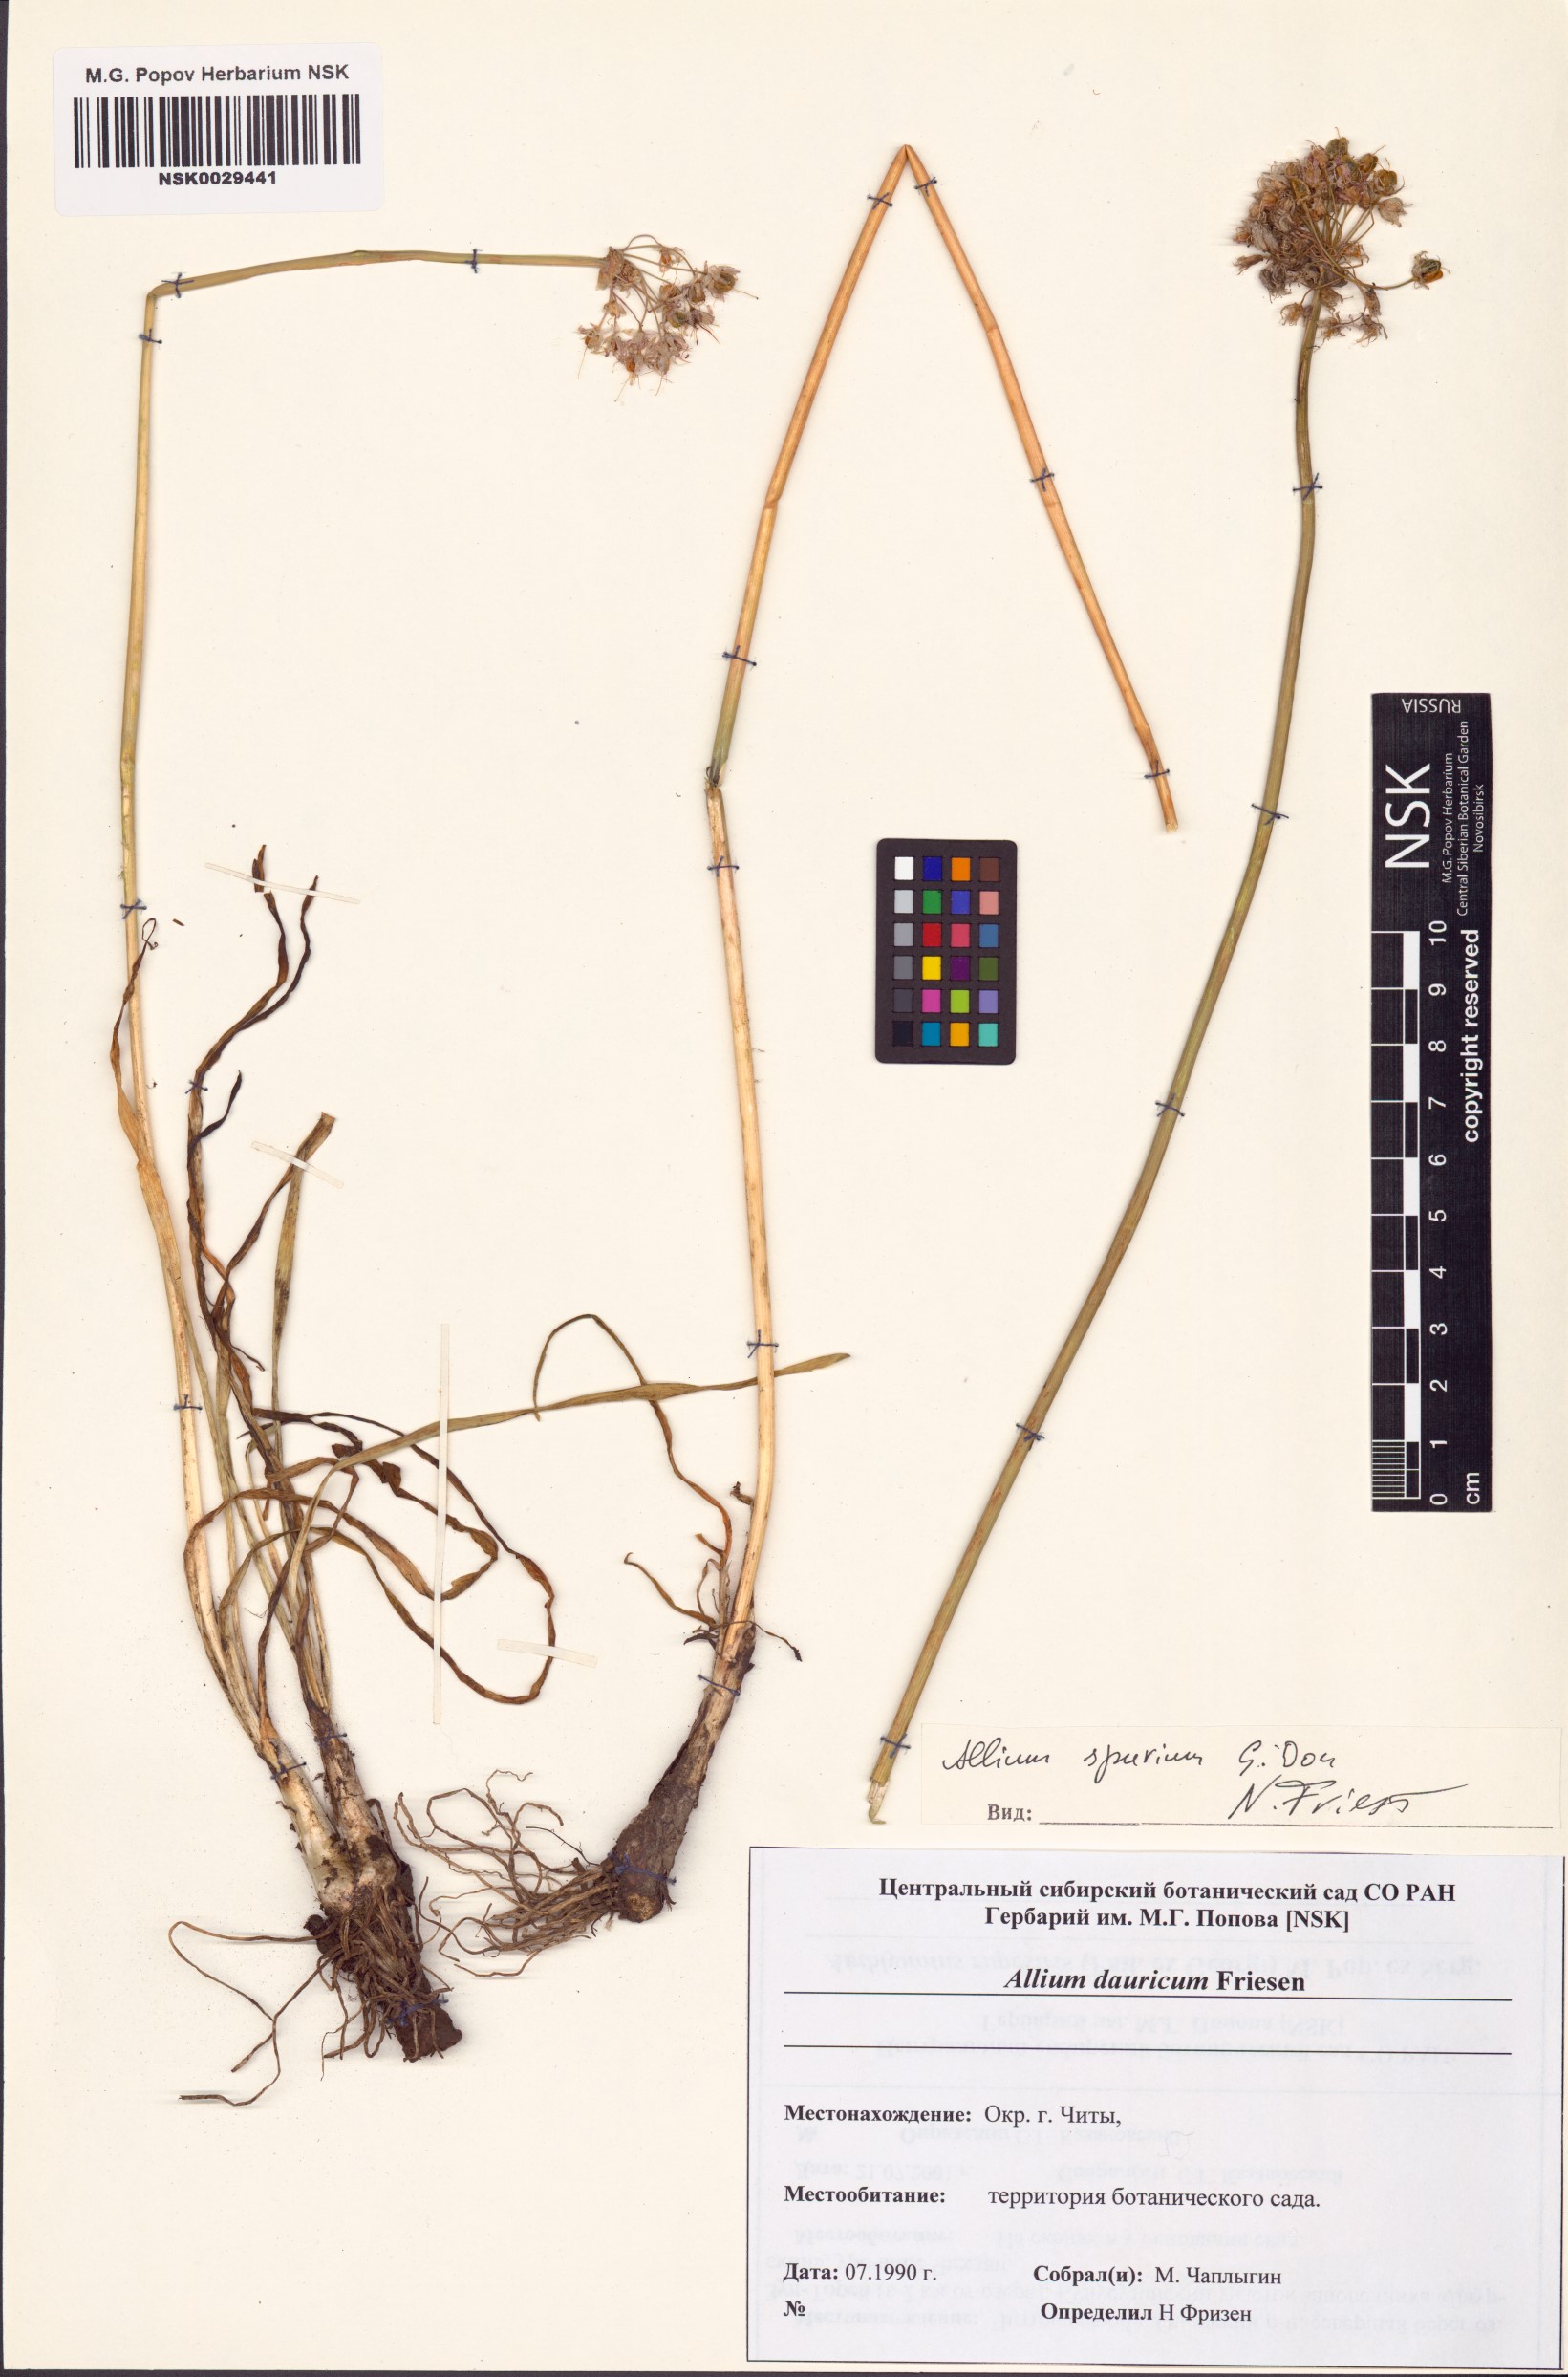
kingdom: Plantae
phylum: Tracheophyta
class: Liliopsida
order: Asparagales
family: Amaryllidaceae
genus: Allium
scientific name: Allium spurium
